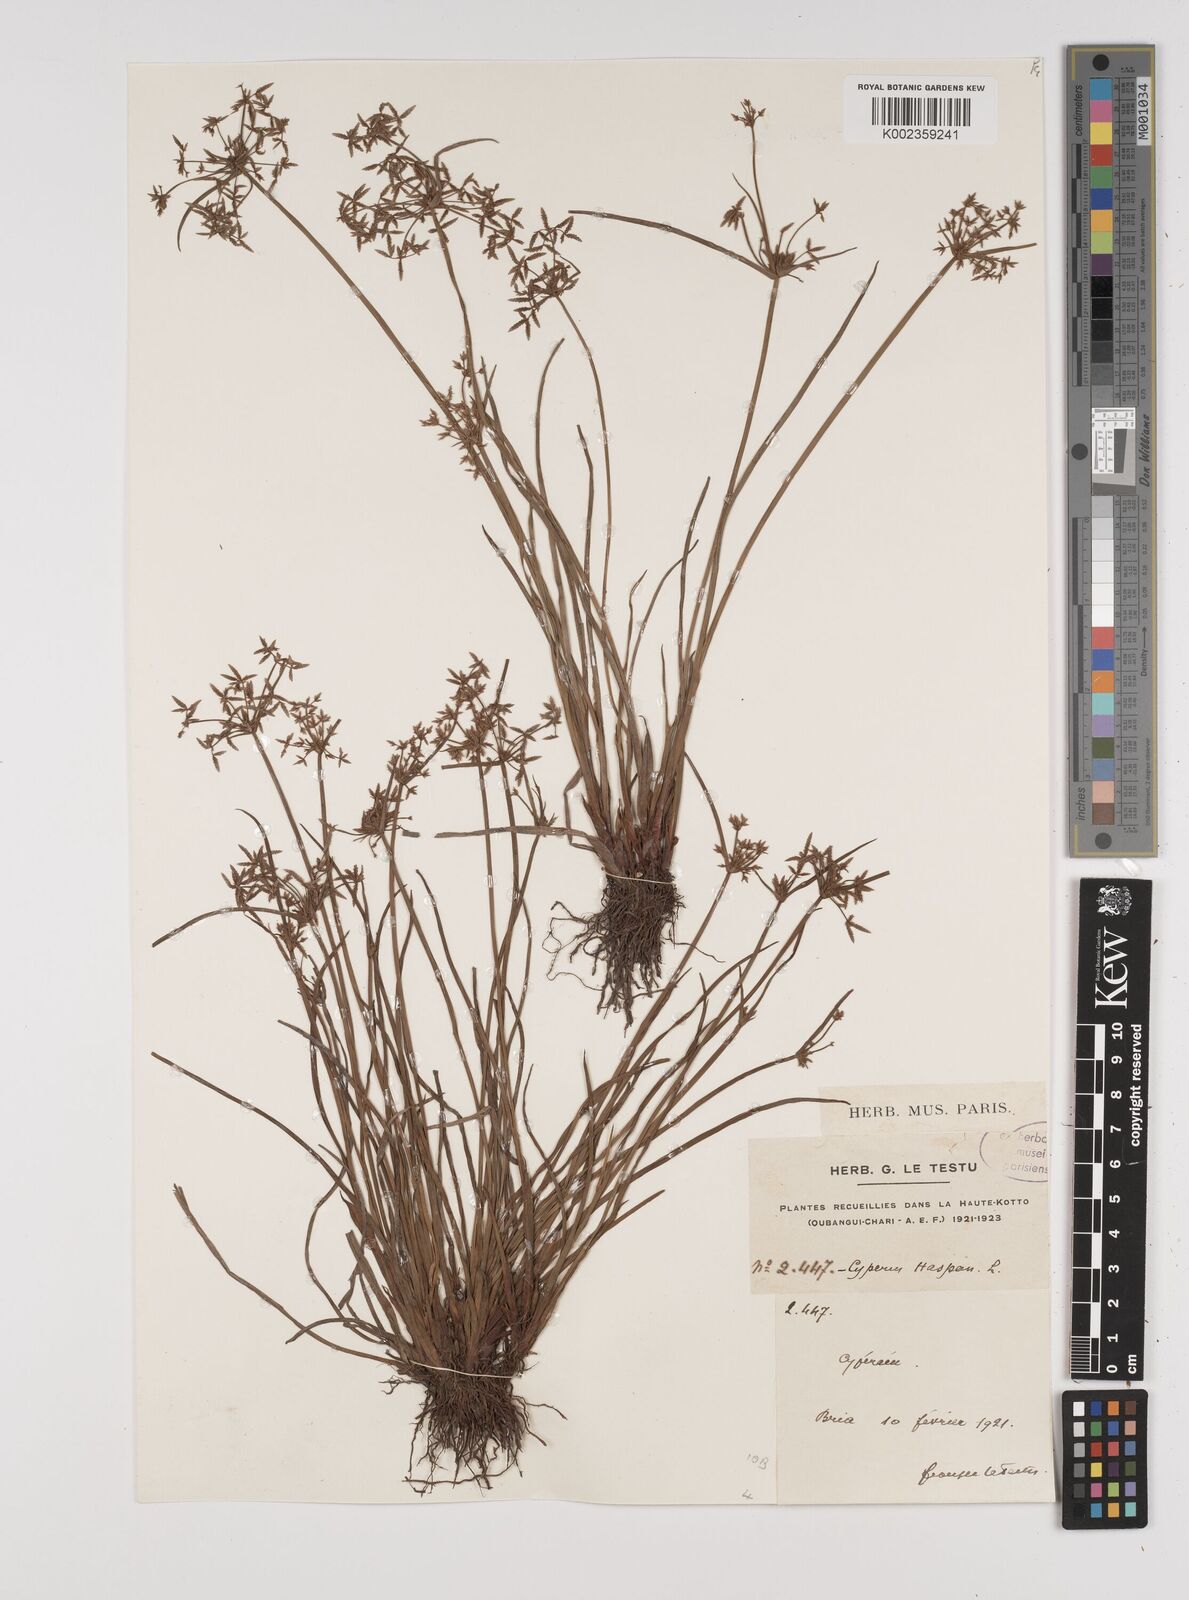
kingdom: Plantae
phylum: Tracheophyta
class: Liliopsida
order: Poales
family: Cyperaceae
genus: Cyperus
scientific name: Cyperus haspan
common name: Haspan flatsedge
